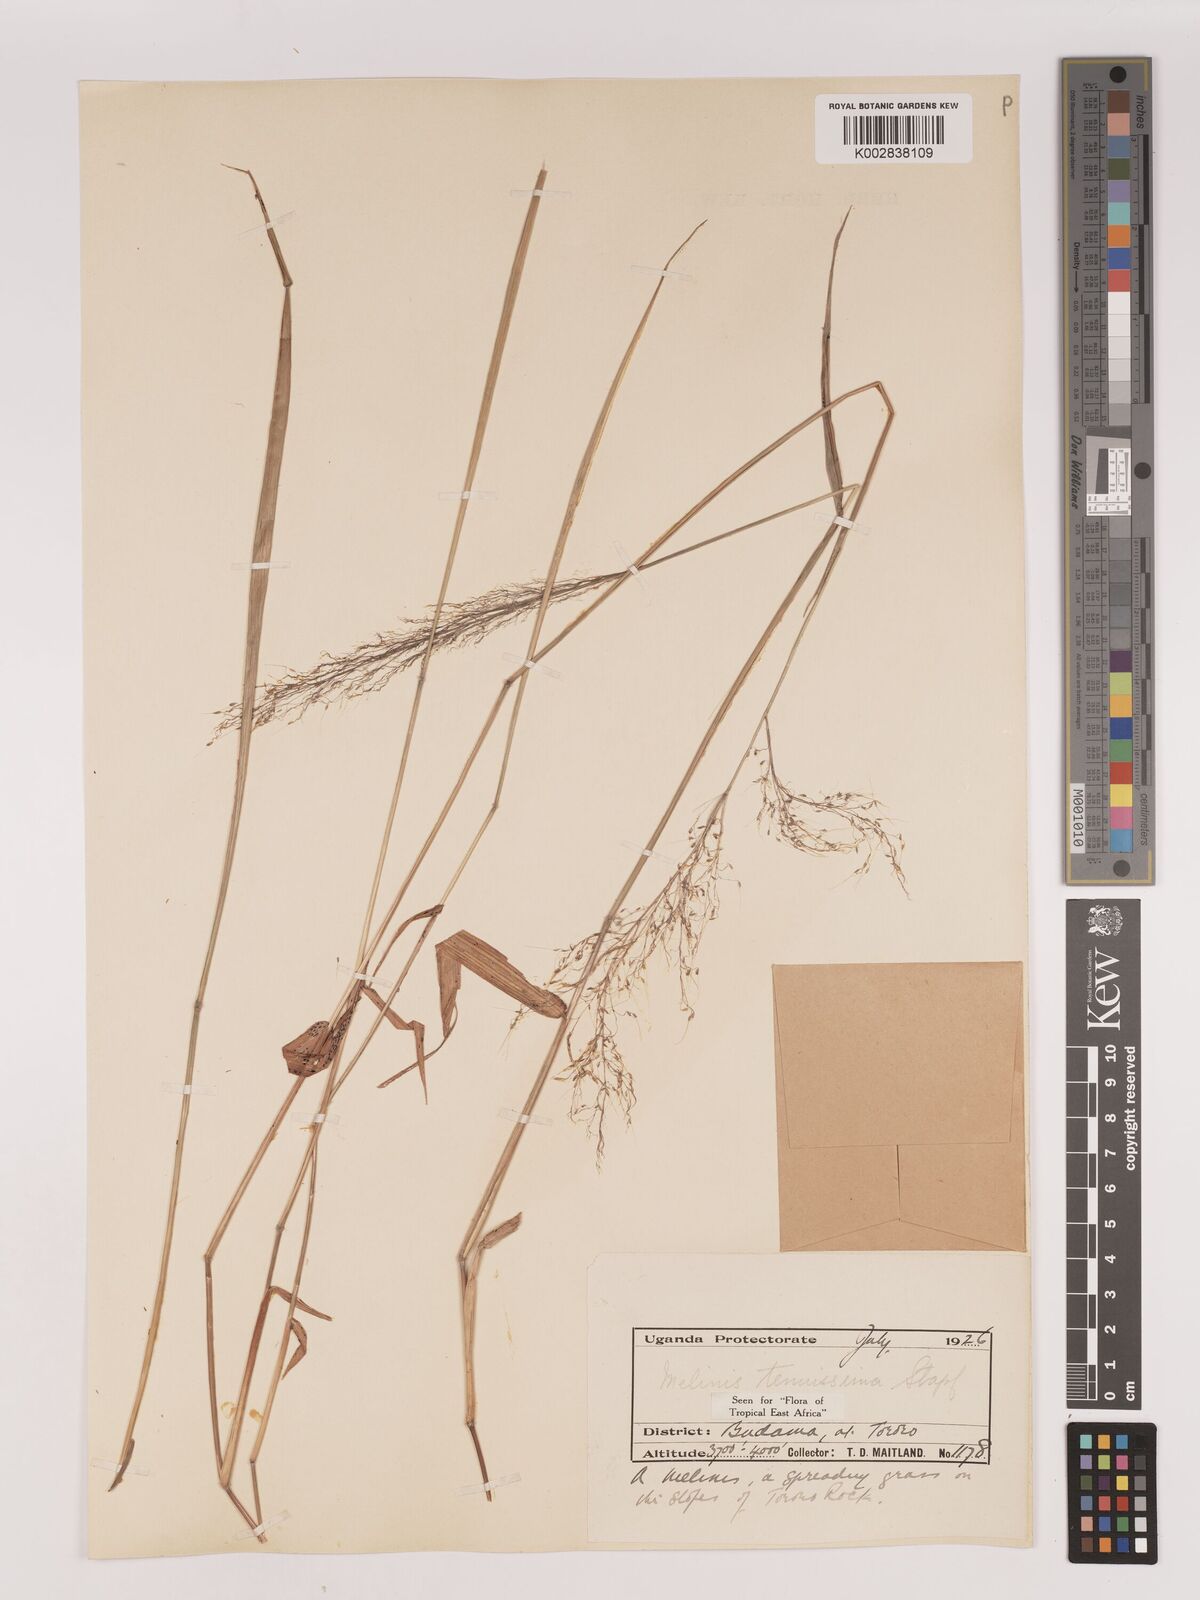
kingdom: Plantae
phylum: Tracheophyta
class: Liliopsida
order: Poales
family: Poaceae
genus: Melinis
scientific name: Melinis tenuissima
